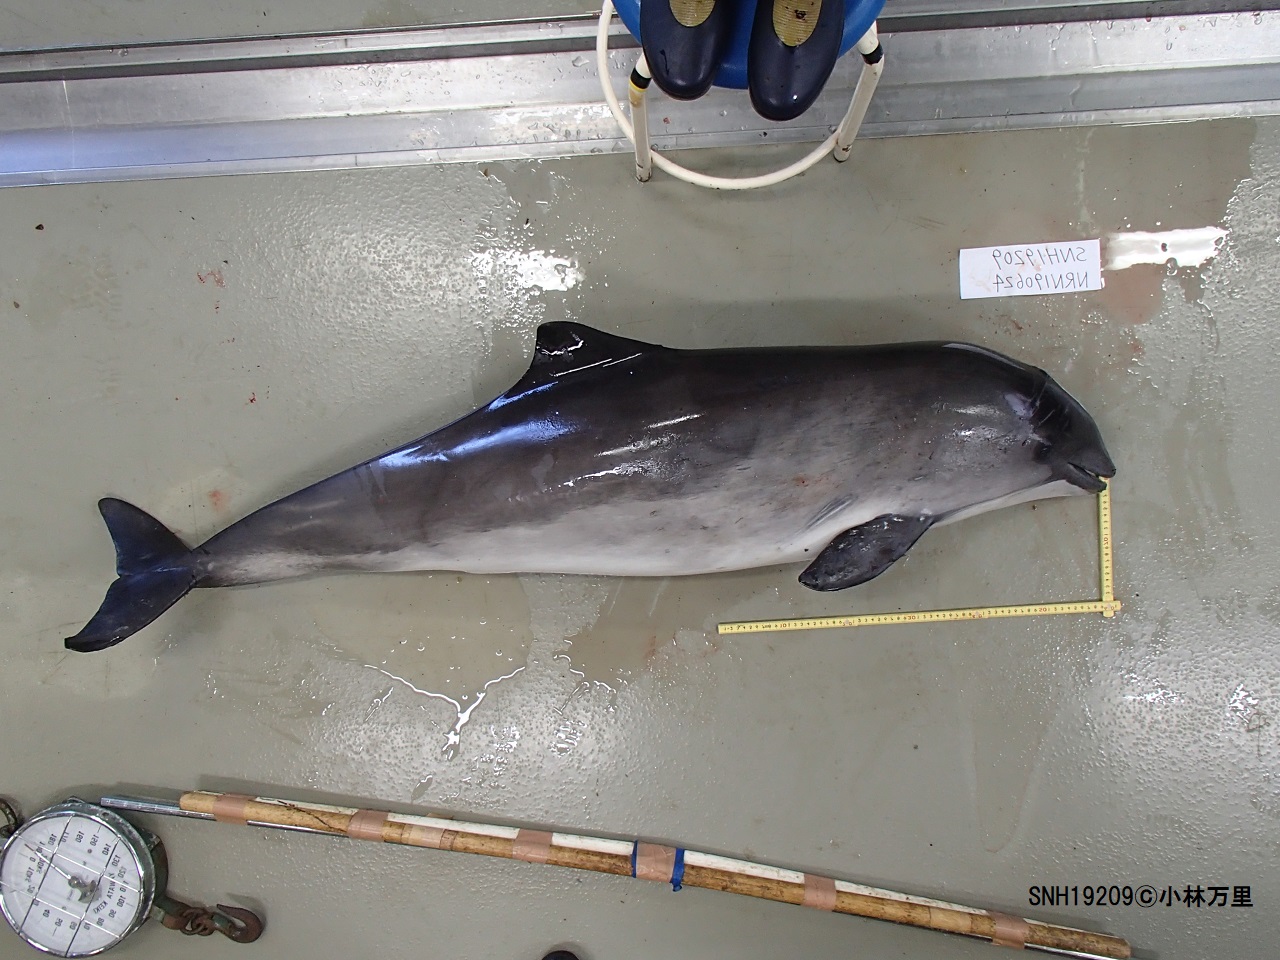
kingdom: Animalia
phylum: Chordata
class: Mammalia
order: Cetacea
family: Phocoenidae
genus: Phocoena
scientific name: Phocoena phocoena
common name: Harbour porpoise
